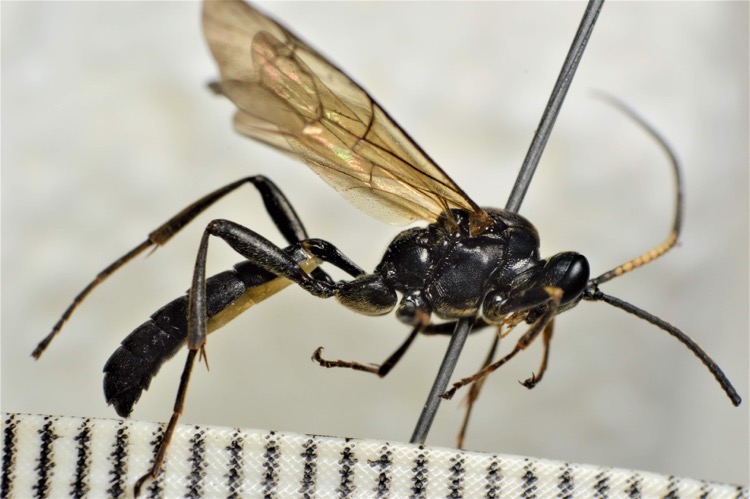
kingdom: Animalia
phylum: Arthropoda
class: Insecta
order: Hymenoptera
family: Ichneumonidae
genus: Hepiopelmus
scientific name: Hepiopelmus melanogaster
